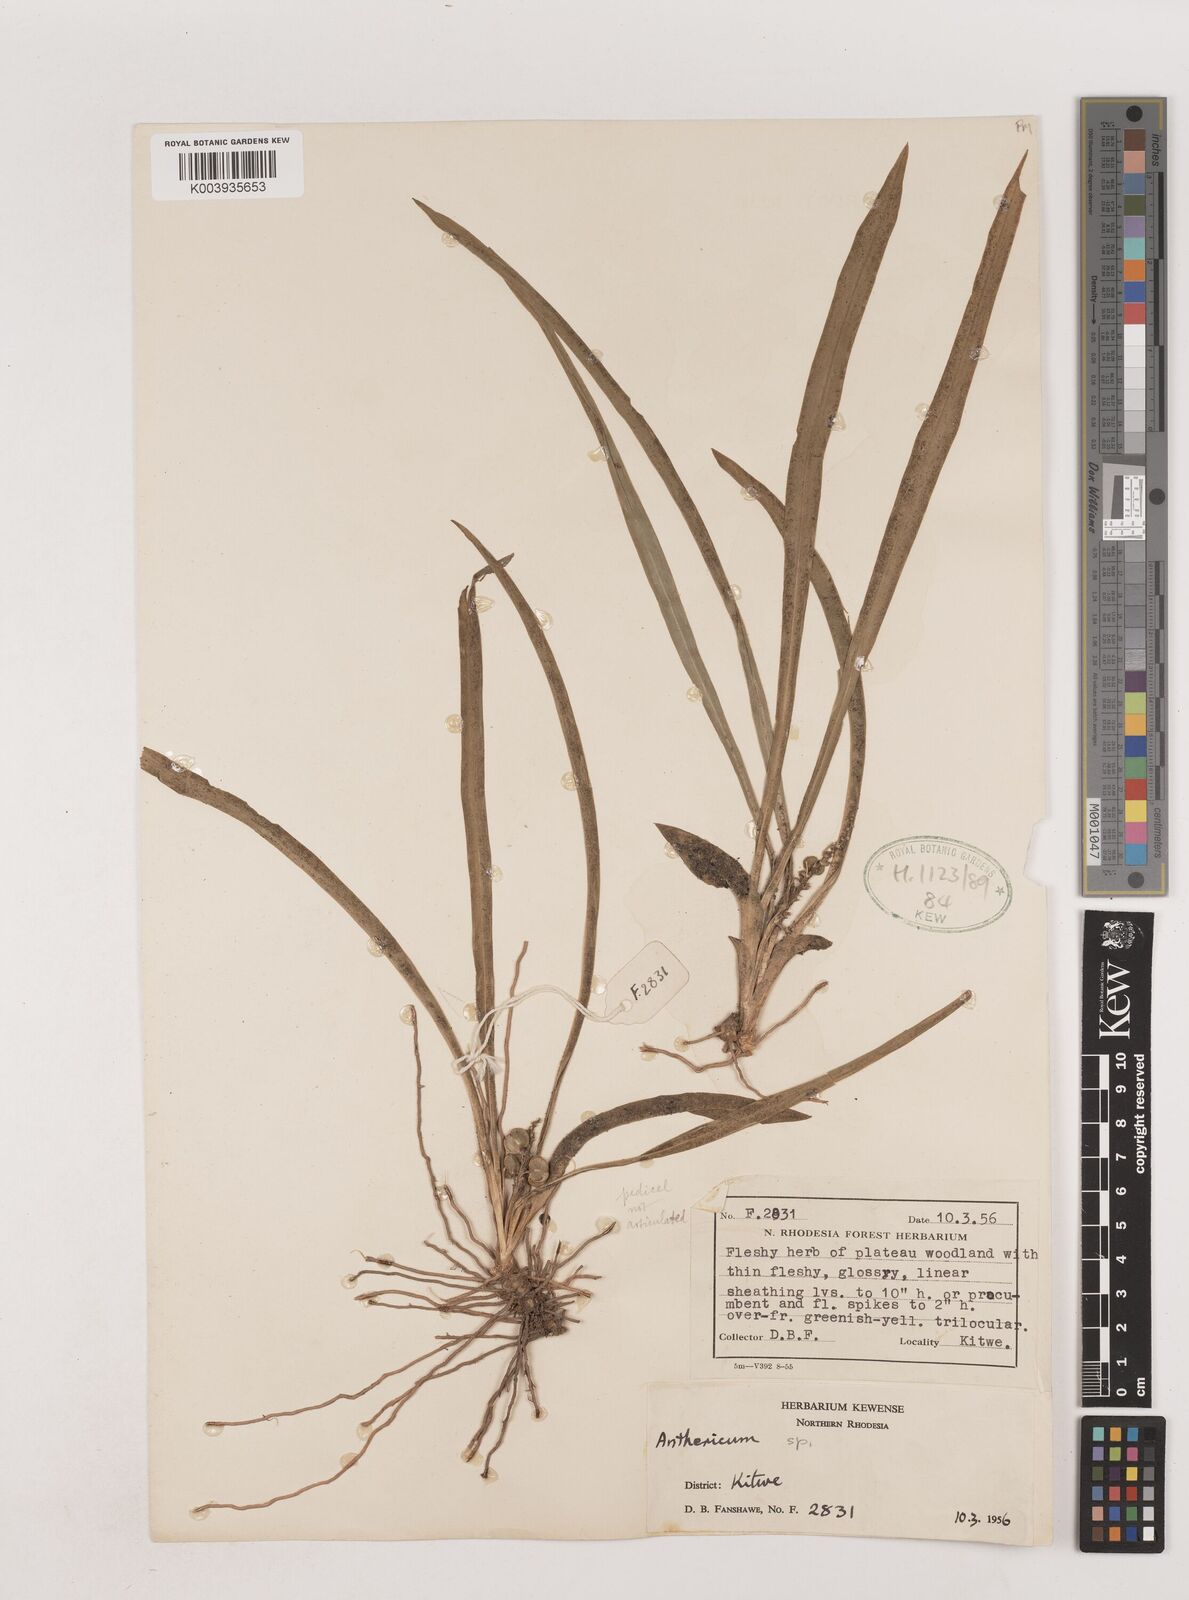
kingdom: Plantae
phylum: Tracheophyta
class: Liliopsida
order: Asparagales
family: Asparagaceae
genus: Chlorophytum
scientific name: Chlorophytum
